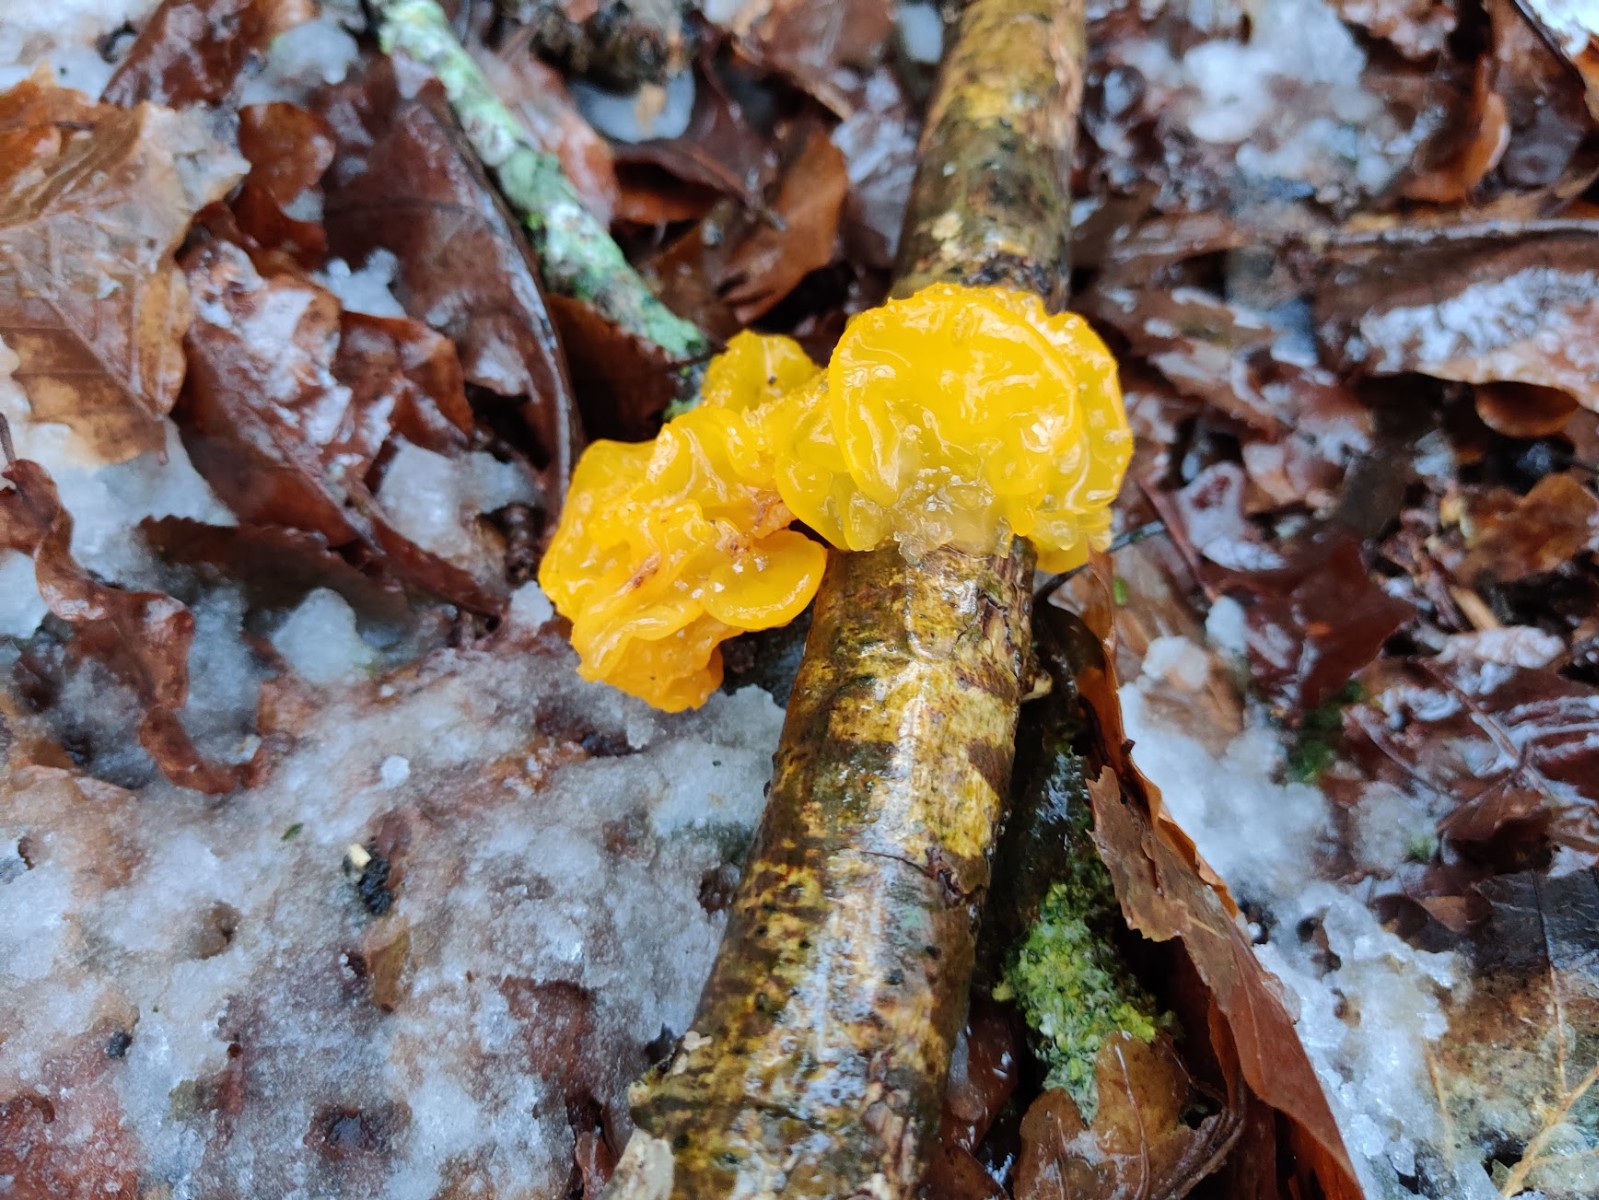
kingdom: Fungi
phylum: Basidiomycota
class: Tremellomycetes
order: Tremellales
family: Tremellaceae
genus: Tremella
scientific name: Tremella mesenterica
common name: gul bævresvamp
